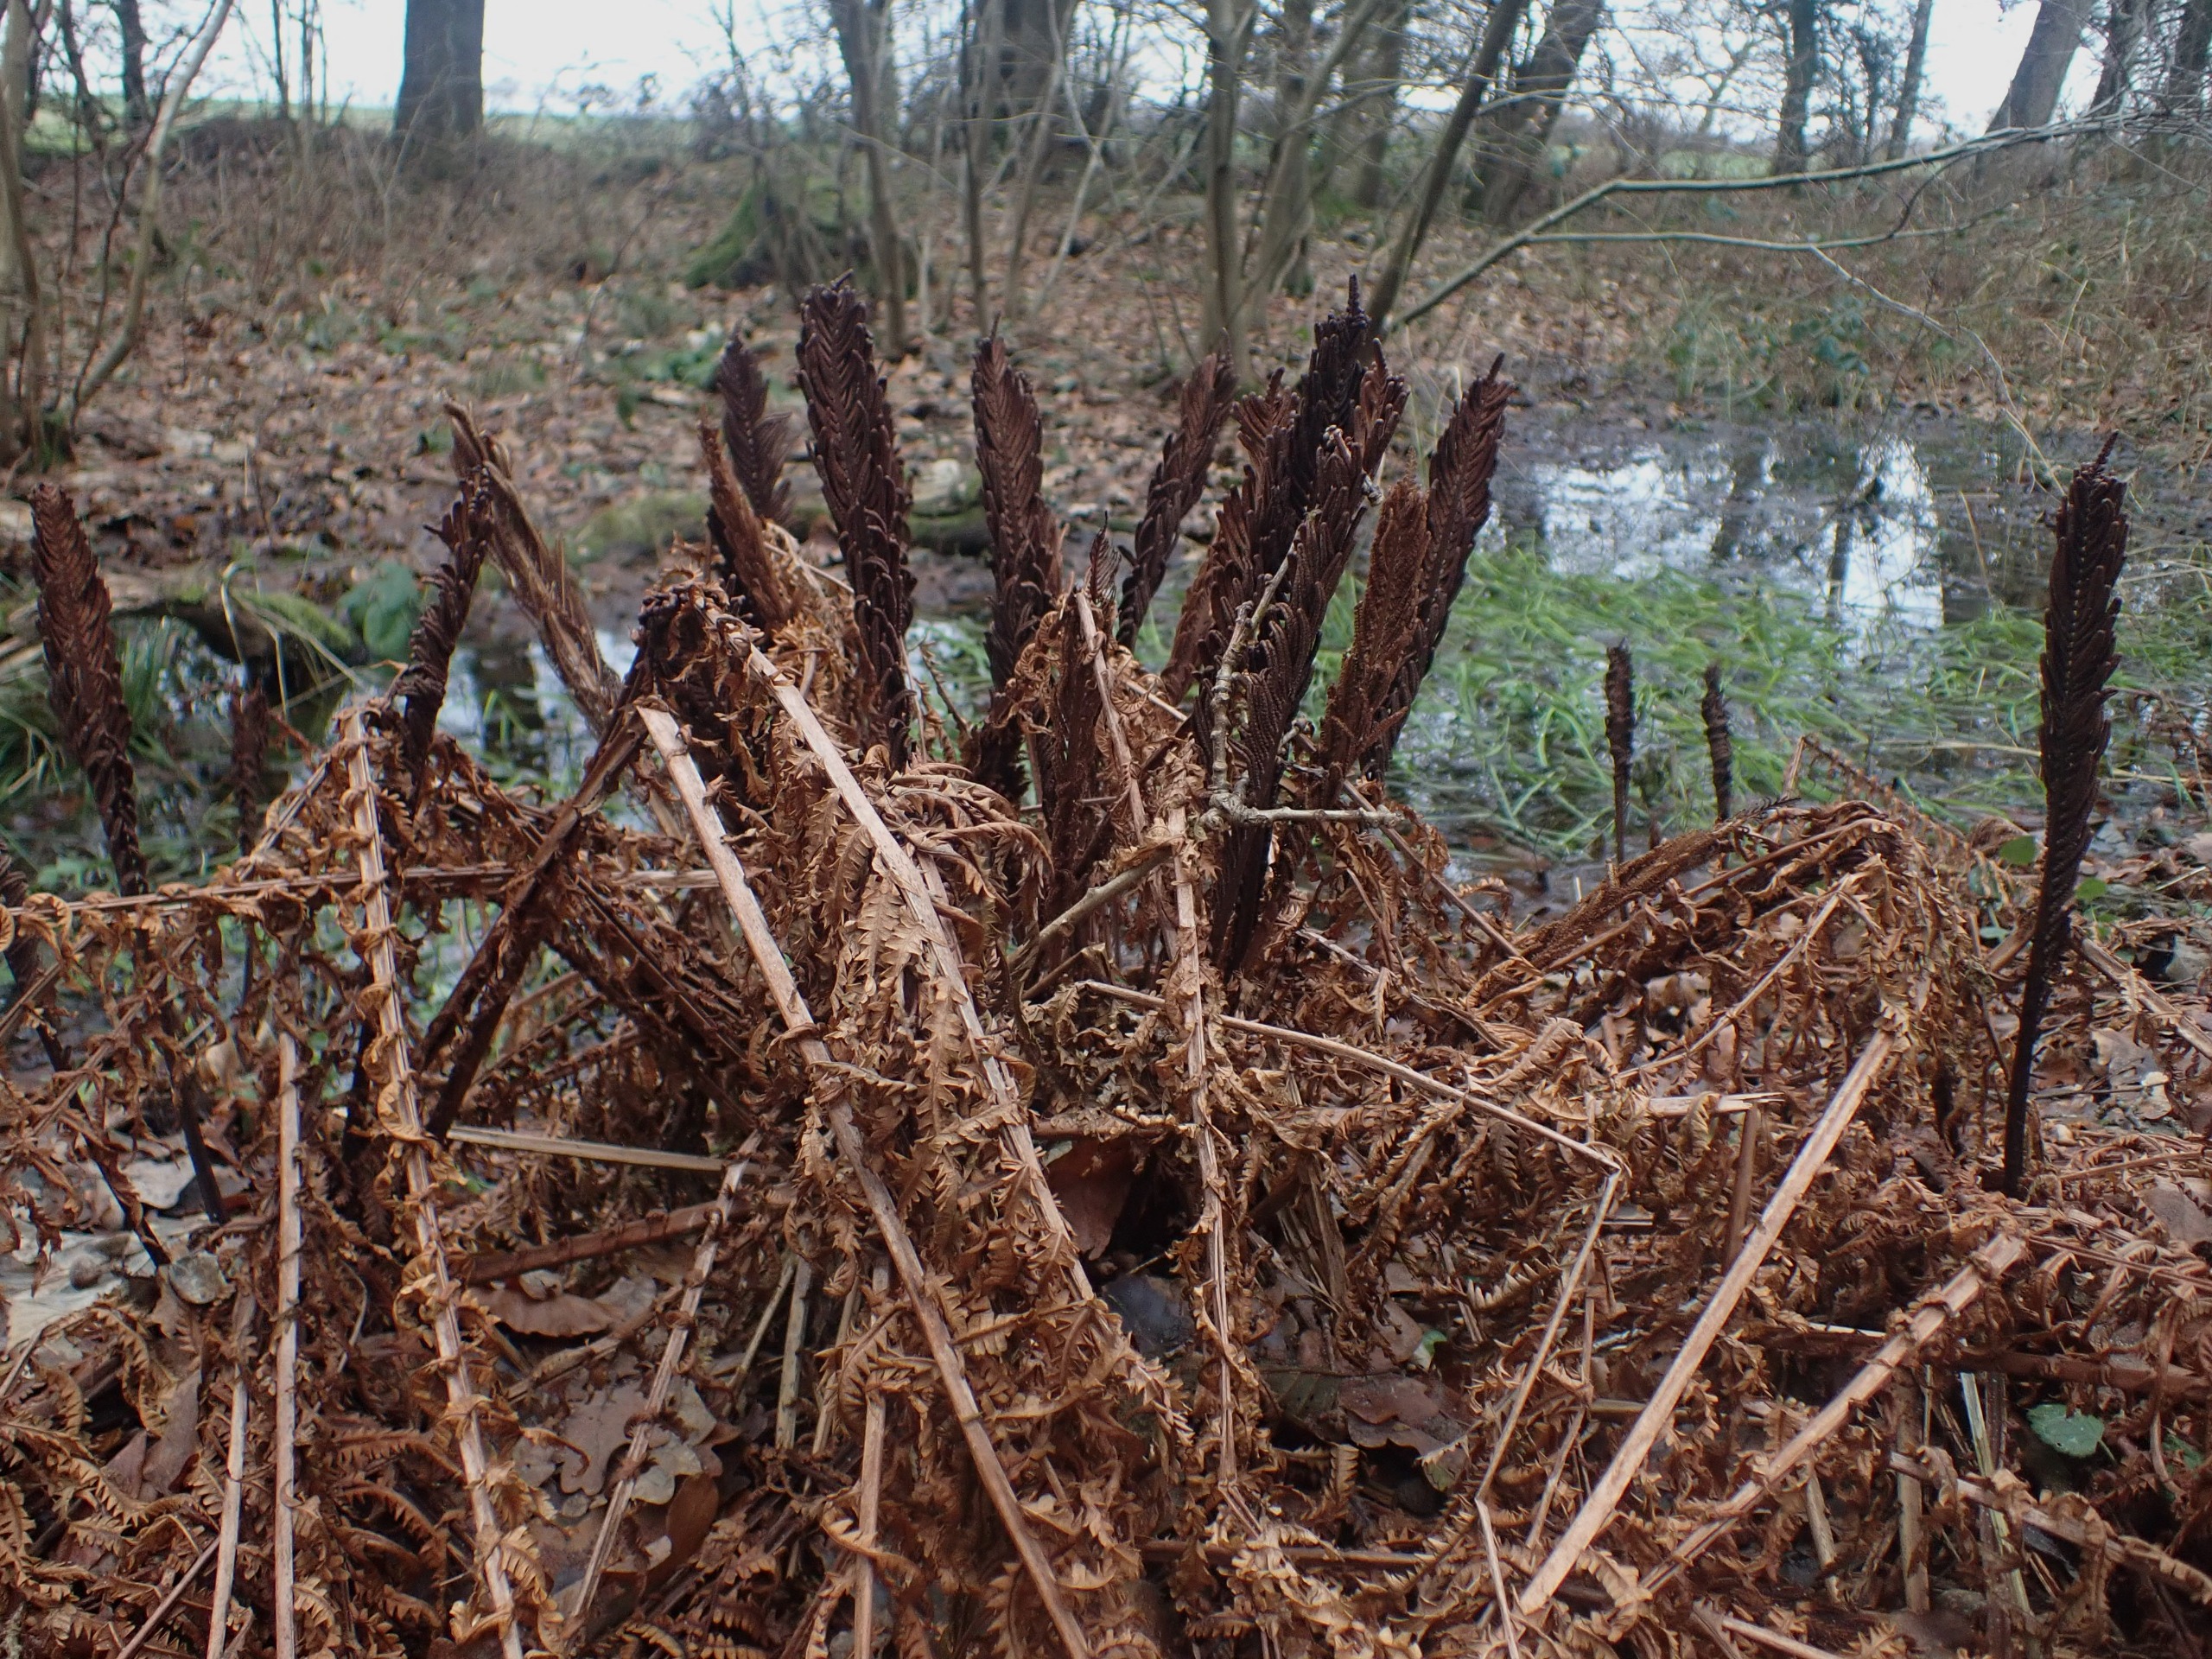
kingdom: Plantae
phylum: Tracheophyta
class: Polypodiopsida
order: Polypodiales
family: Onocleaceae
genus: Matteuccia
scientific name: Matteuccia struthiopteris
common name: Strudsvinge
